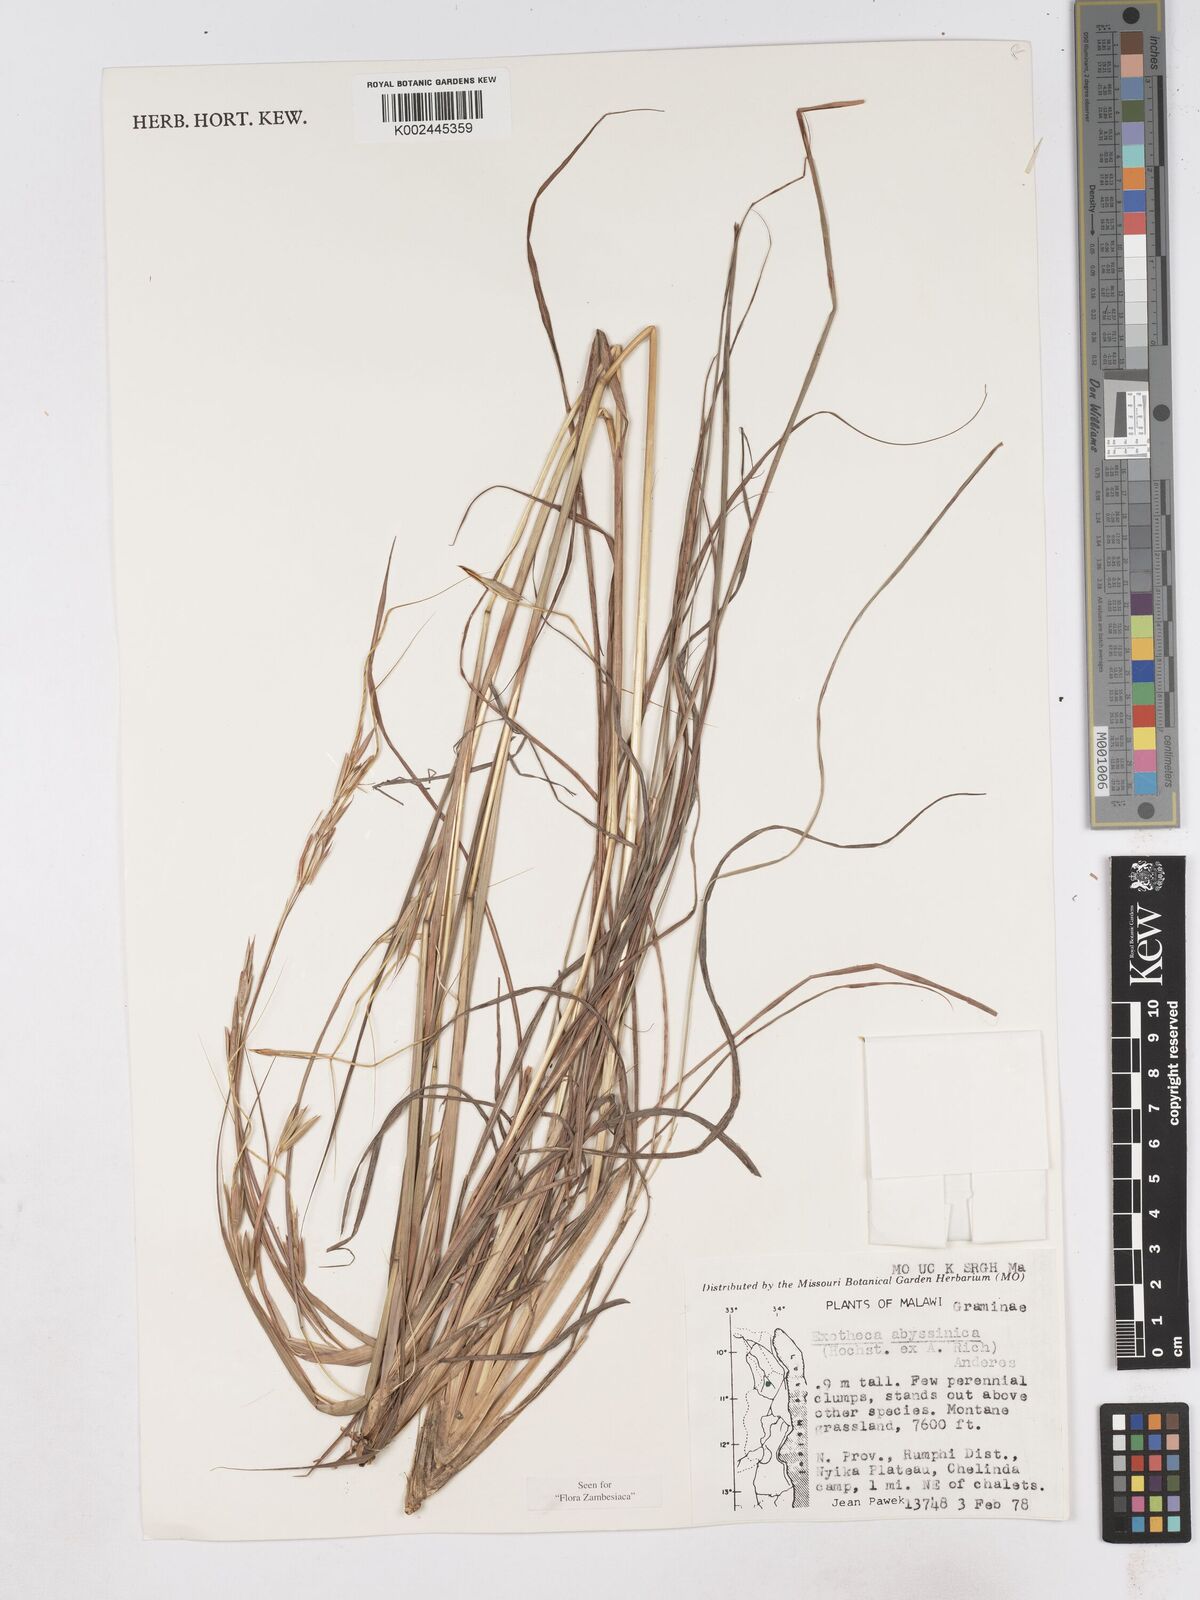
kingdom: Plantae
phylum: Tracheophyta
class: Liliopsida
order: Poales
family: Poaceae
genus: Exotheca
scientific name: Exotheca abyssinica
